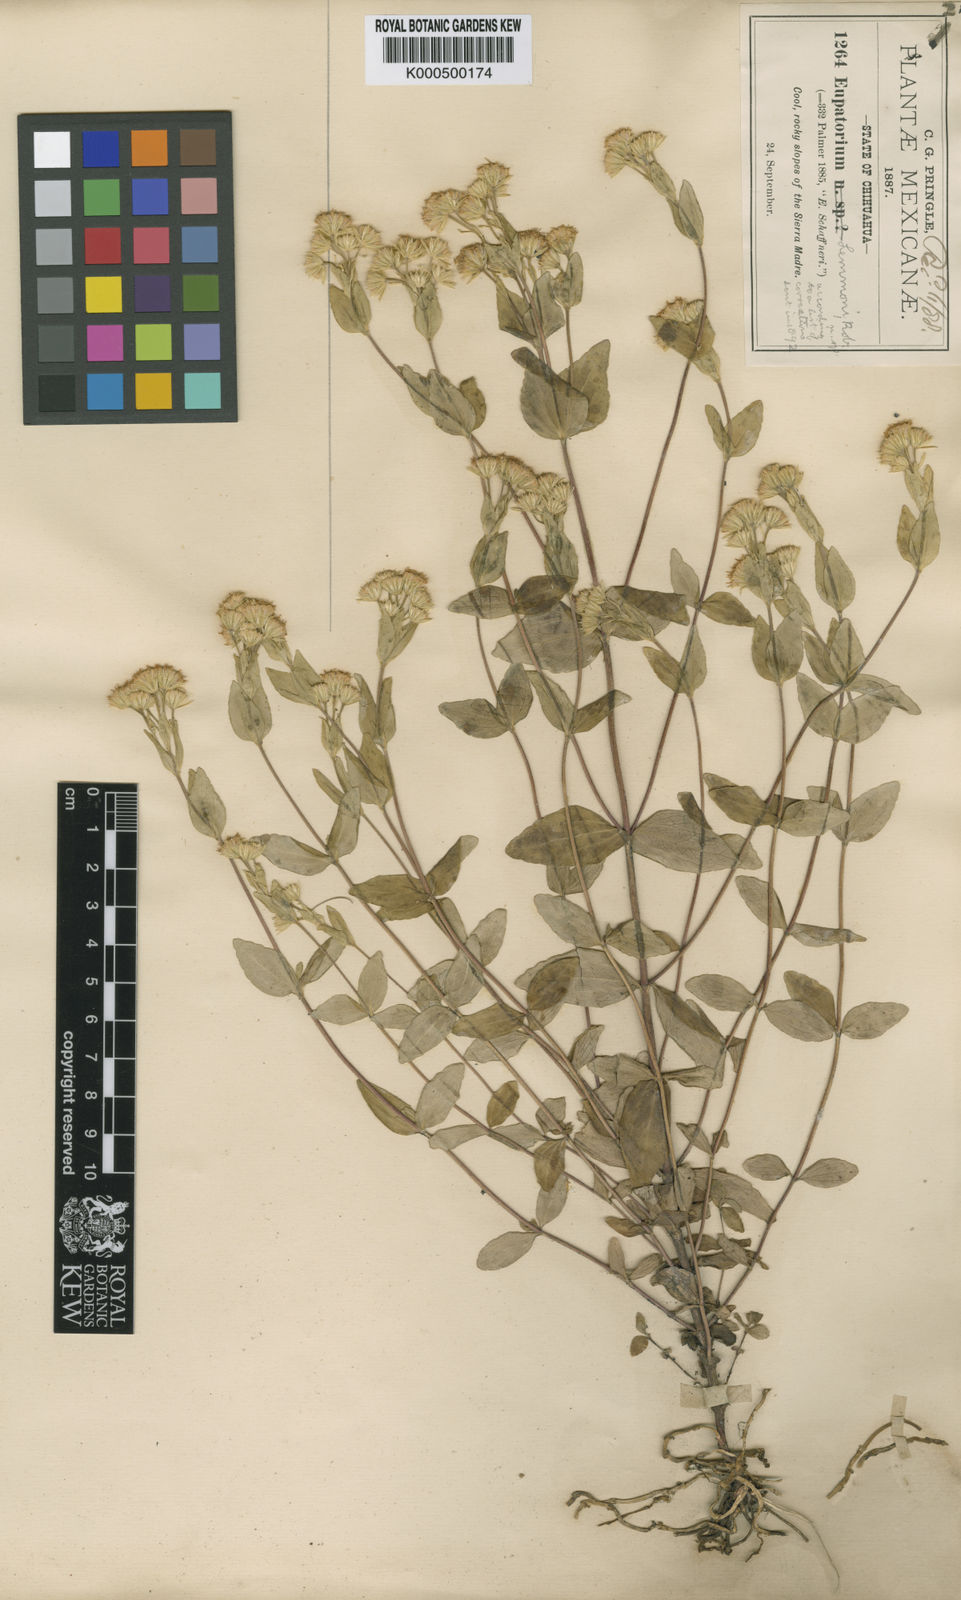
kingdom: Plantae
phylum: Tracheophyta
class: Magnoliopsida
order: Asterales
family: Asteraceae
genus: Ageratina
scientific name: Ageratina lemmonii
